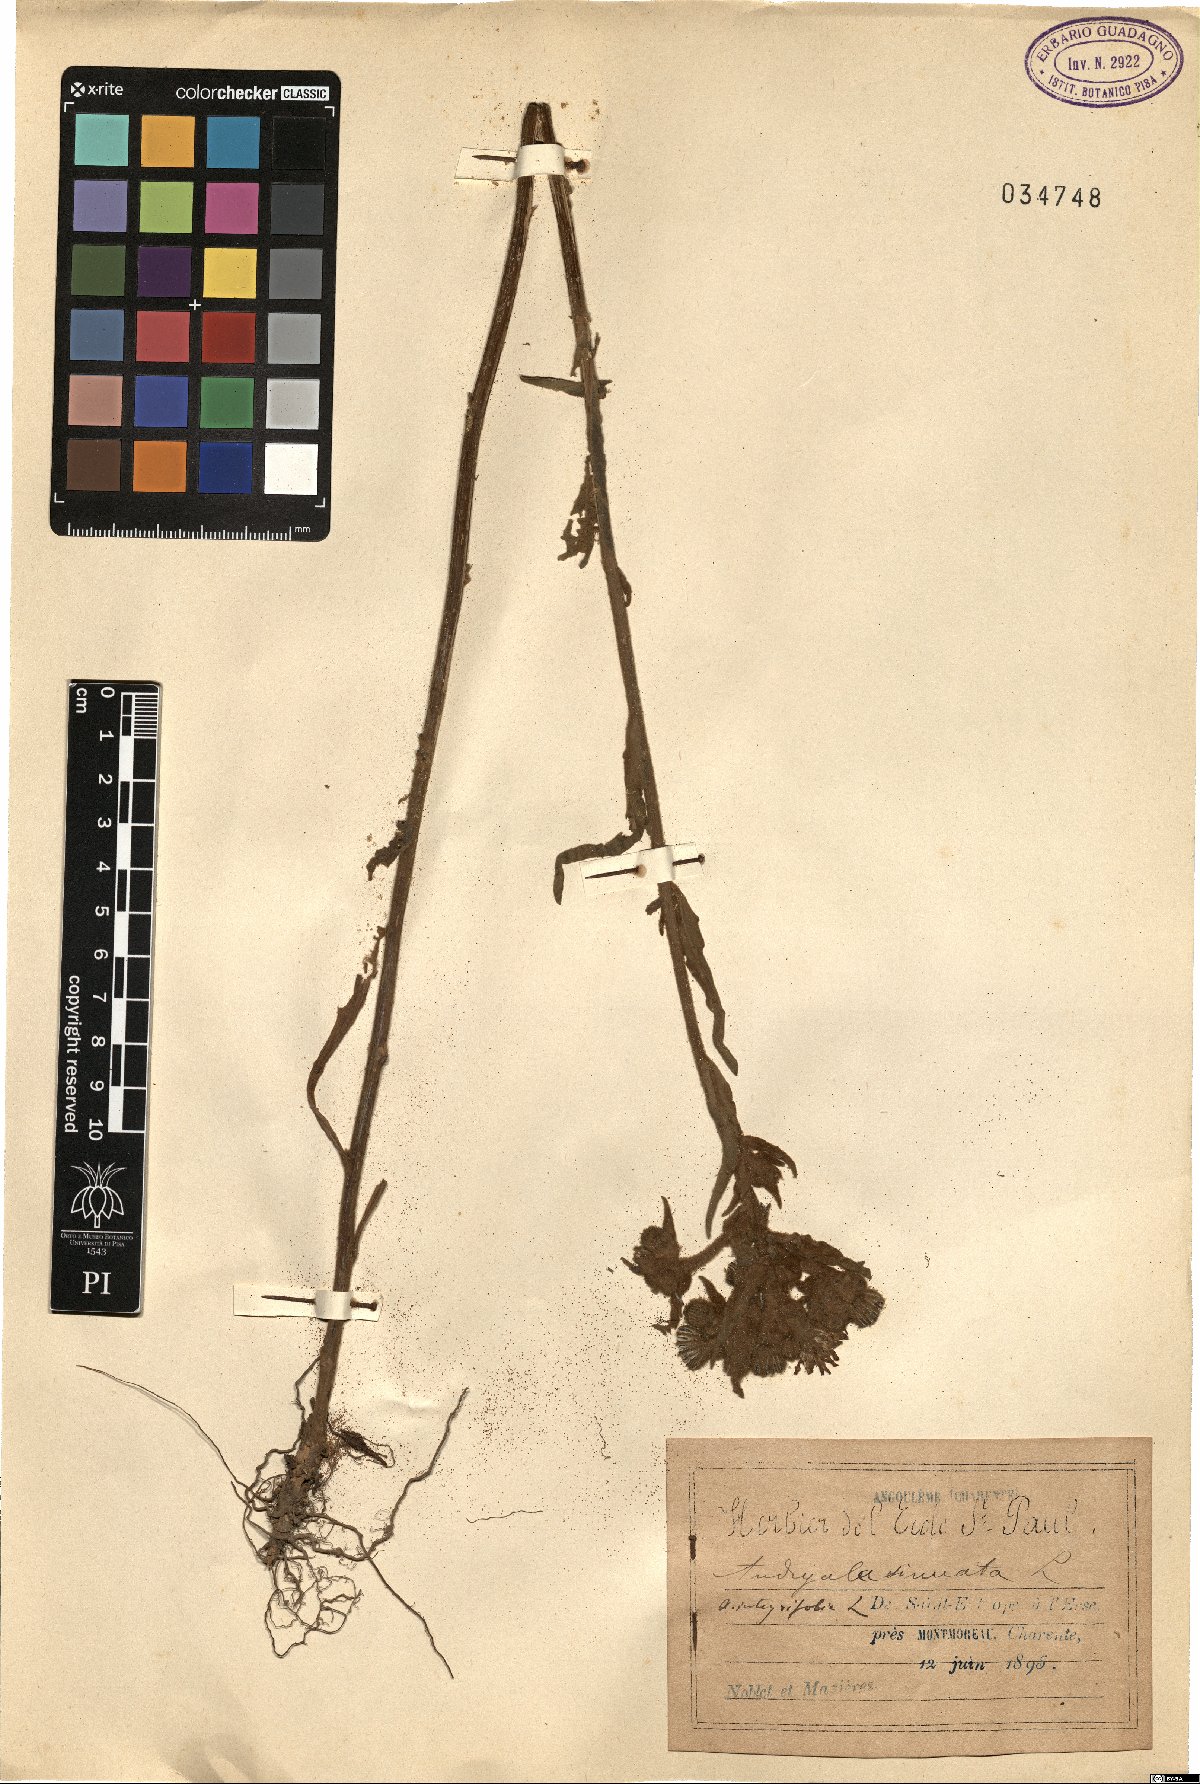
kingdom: Plantae
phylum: Tracheophyta
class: Magnoliopsida
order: Asterales
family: Asteraceae
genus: Andryala
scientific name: Andryala integrifolia
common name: Common andryala
